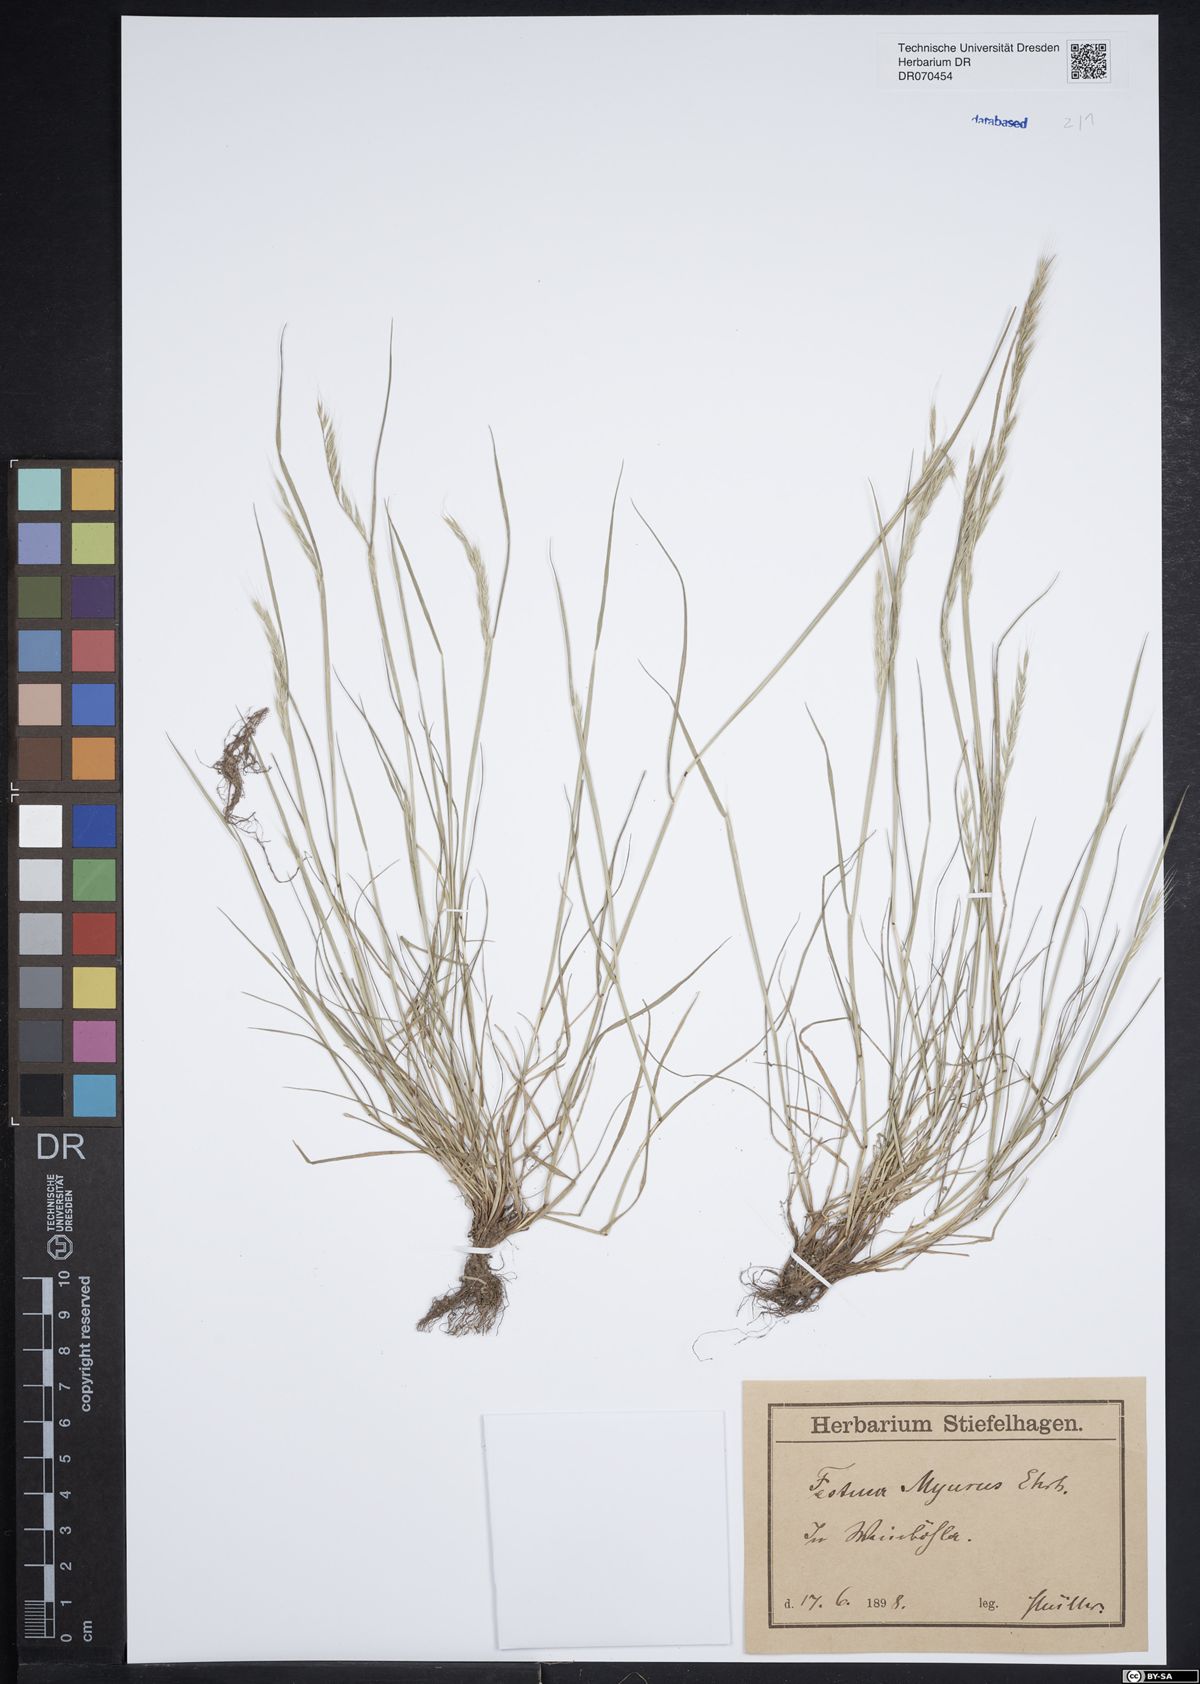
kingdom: Plantae
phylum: Tracheophyta
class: Liliopsida
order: Poales
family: Poaceae
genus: Festuca
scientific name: Festuca myuros
